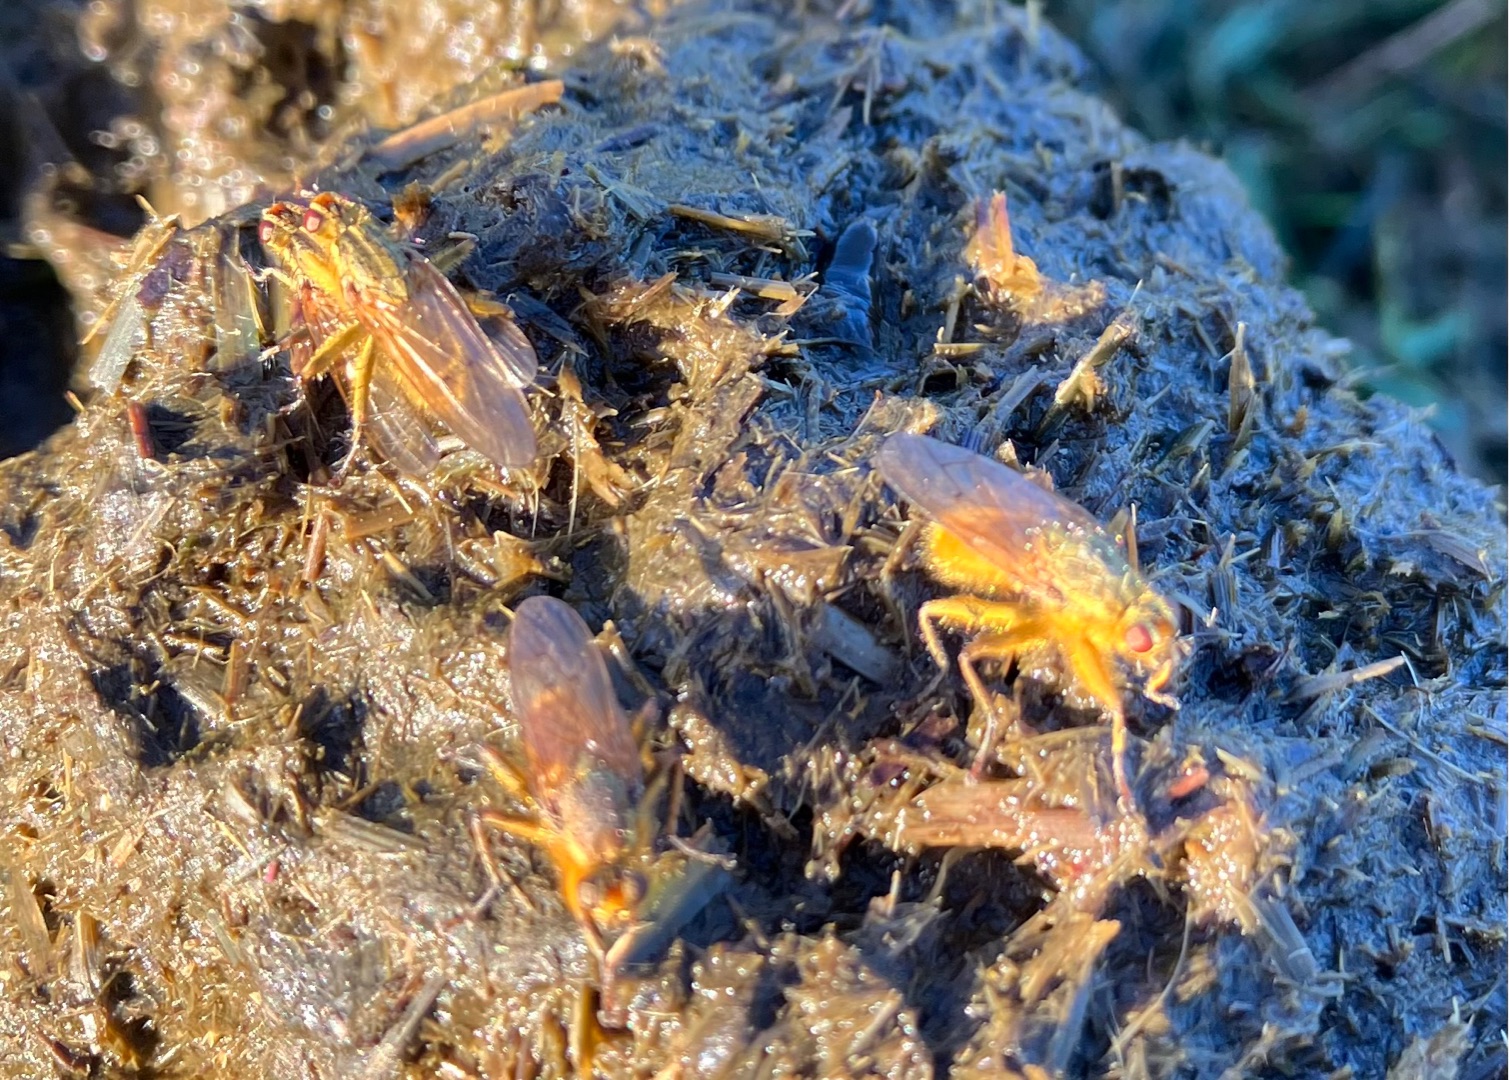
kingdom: Animalia
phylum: Arthropoda
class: Insecta
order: Diptera
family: Scathophagidae
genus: Scathophaga
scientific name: Scathophaga stercoraria
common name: Almindelig gødningsflue
